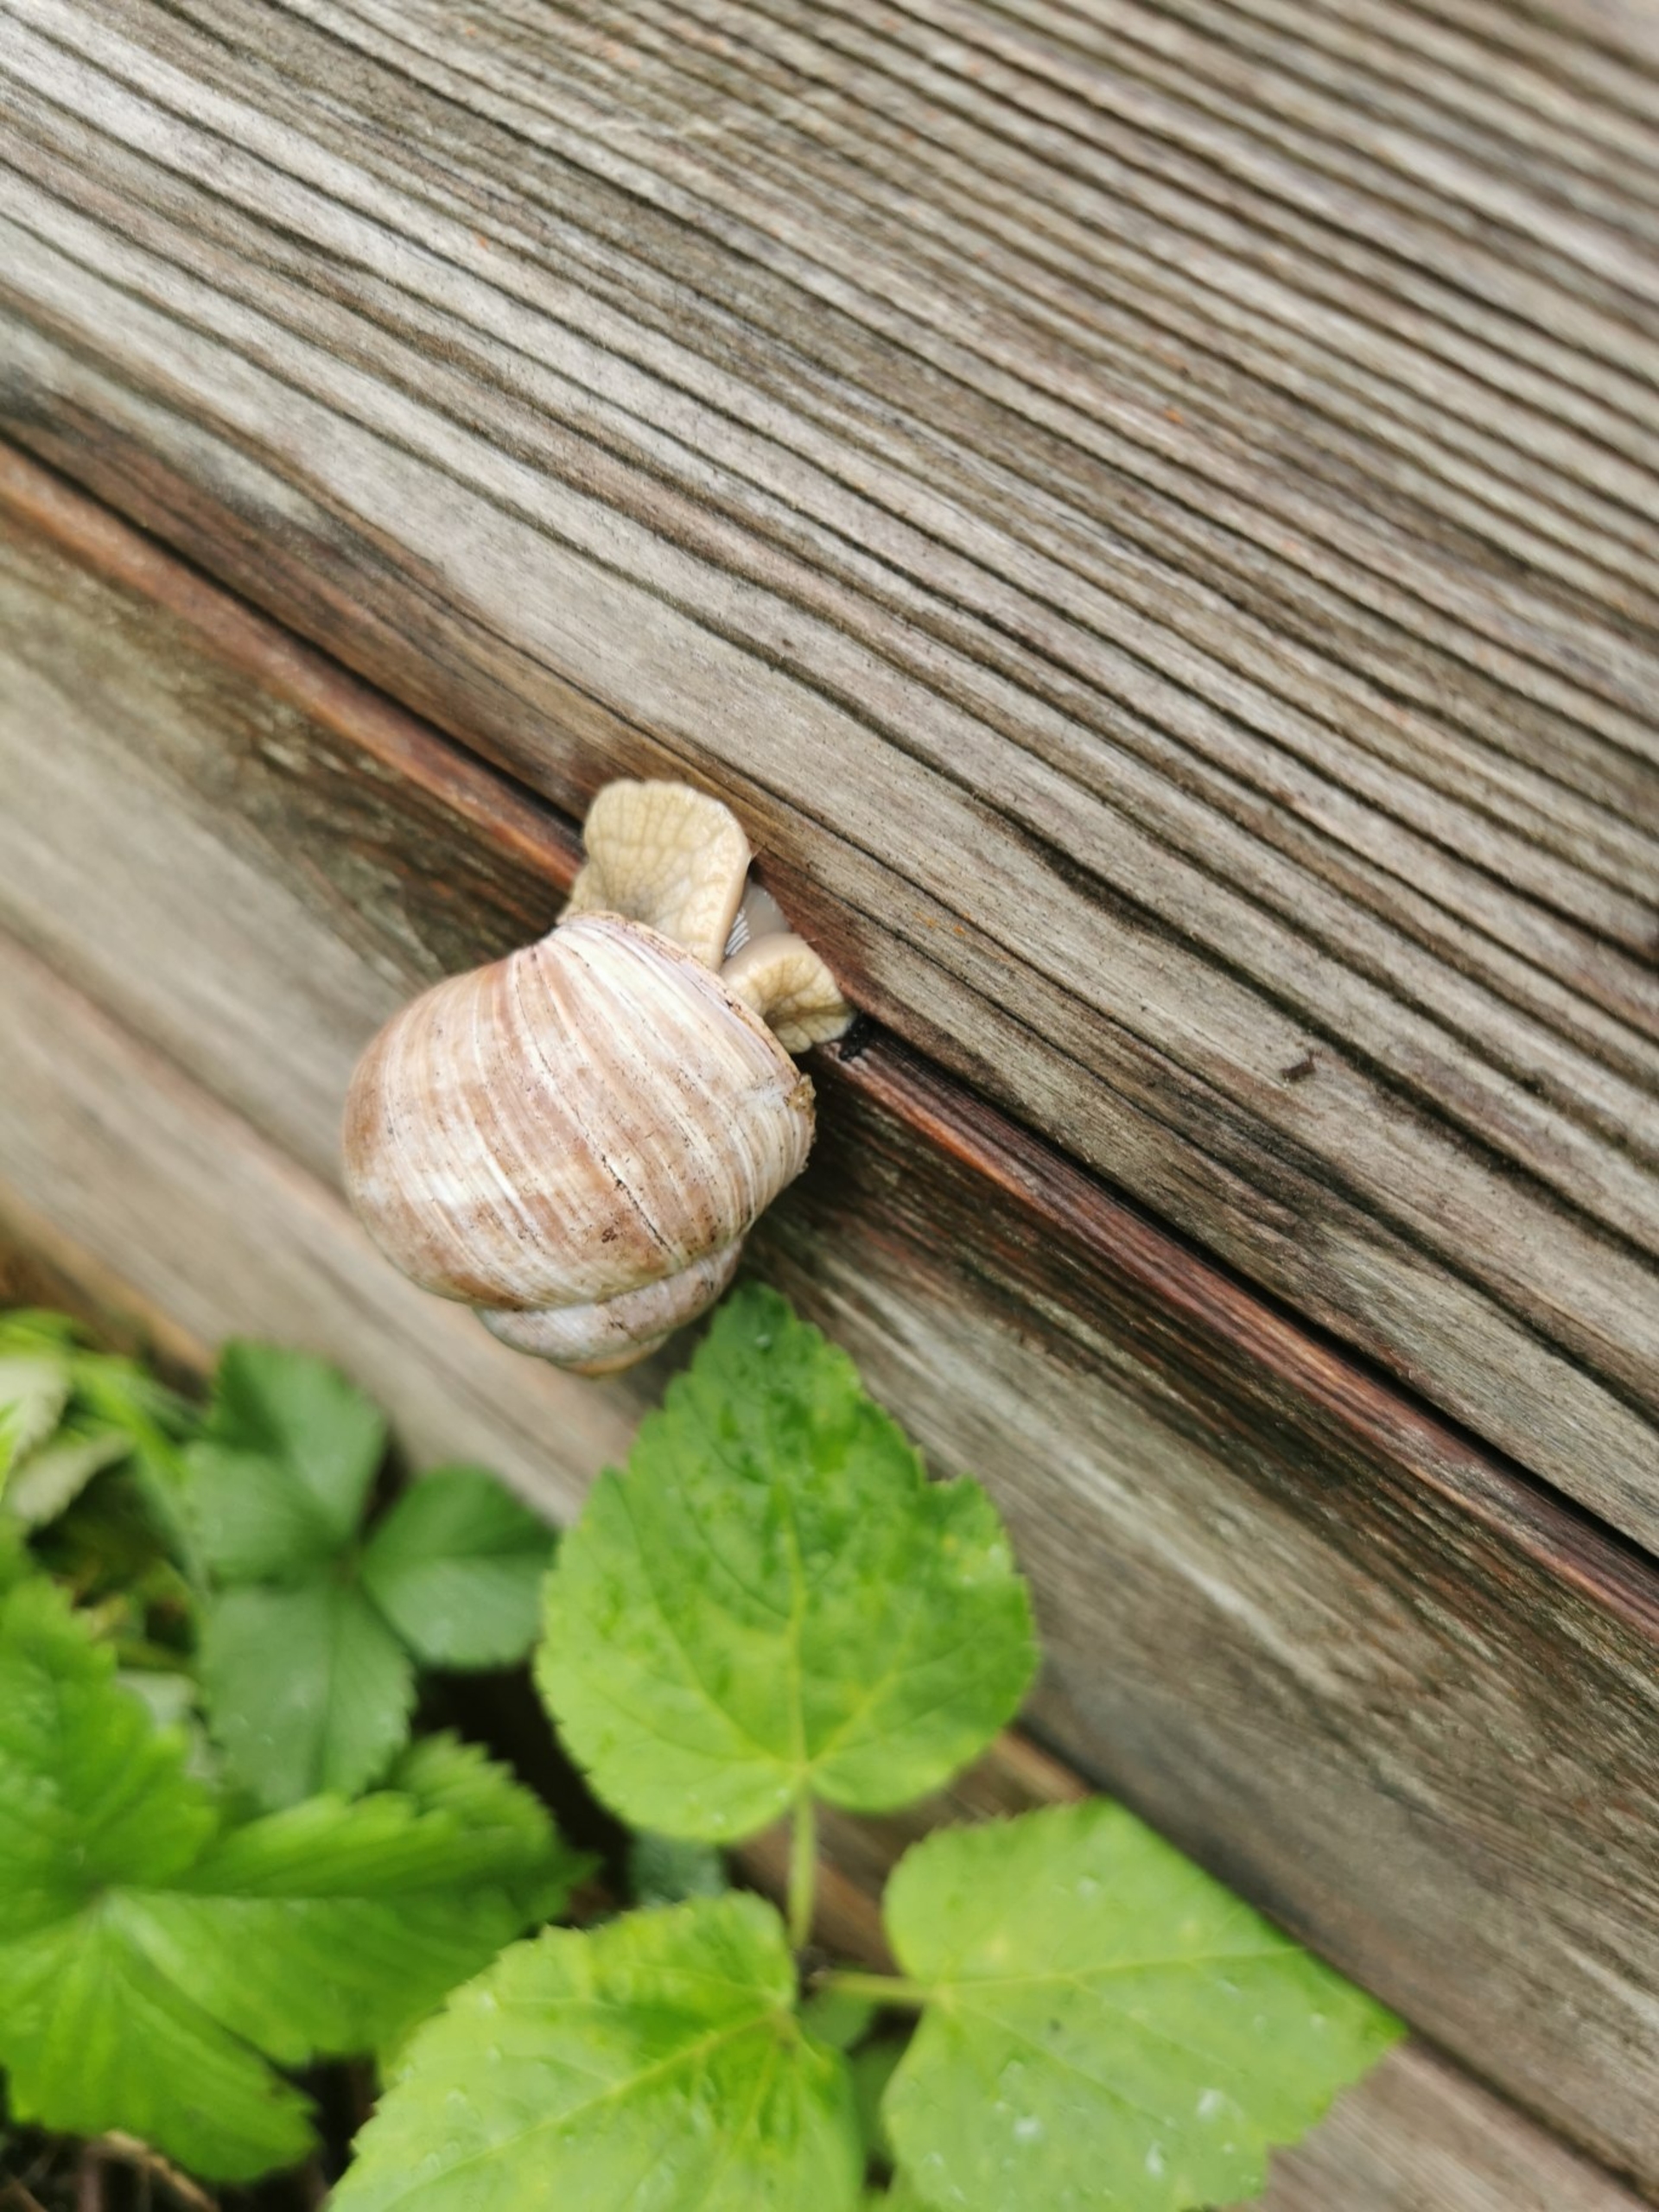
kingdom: Animalia
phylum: Mollusca
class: Gastropoda
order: Stylommatophora
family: Helicidae
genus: Helix
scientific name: Helix pomatia
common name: Vinbjergsnegl
